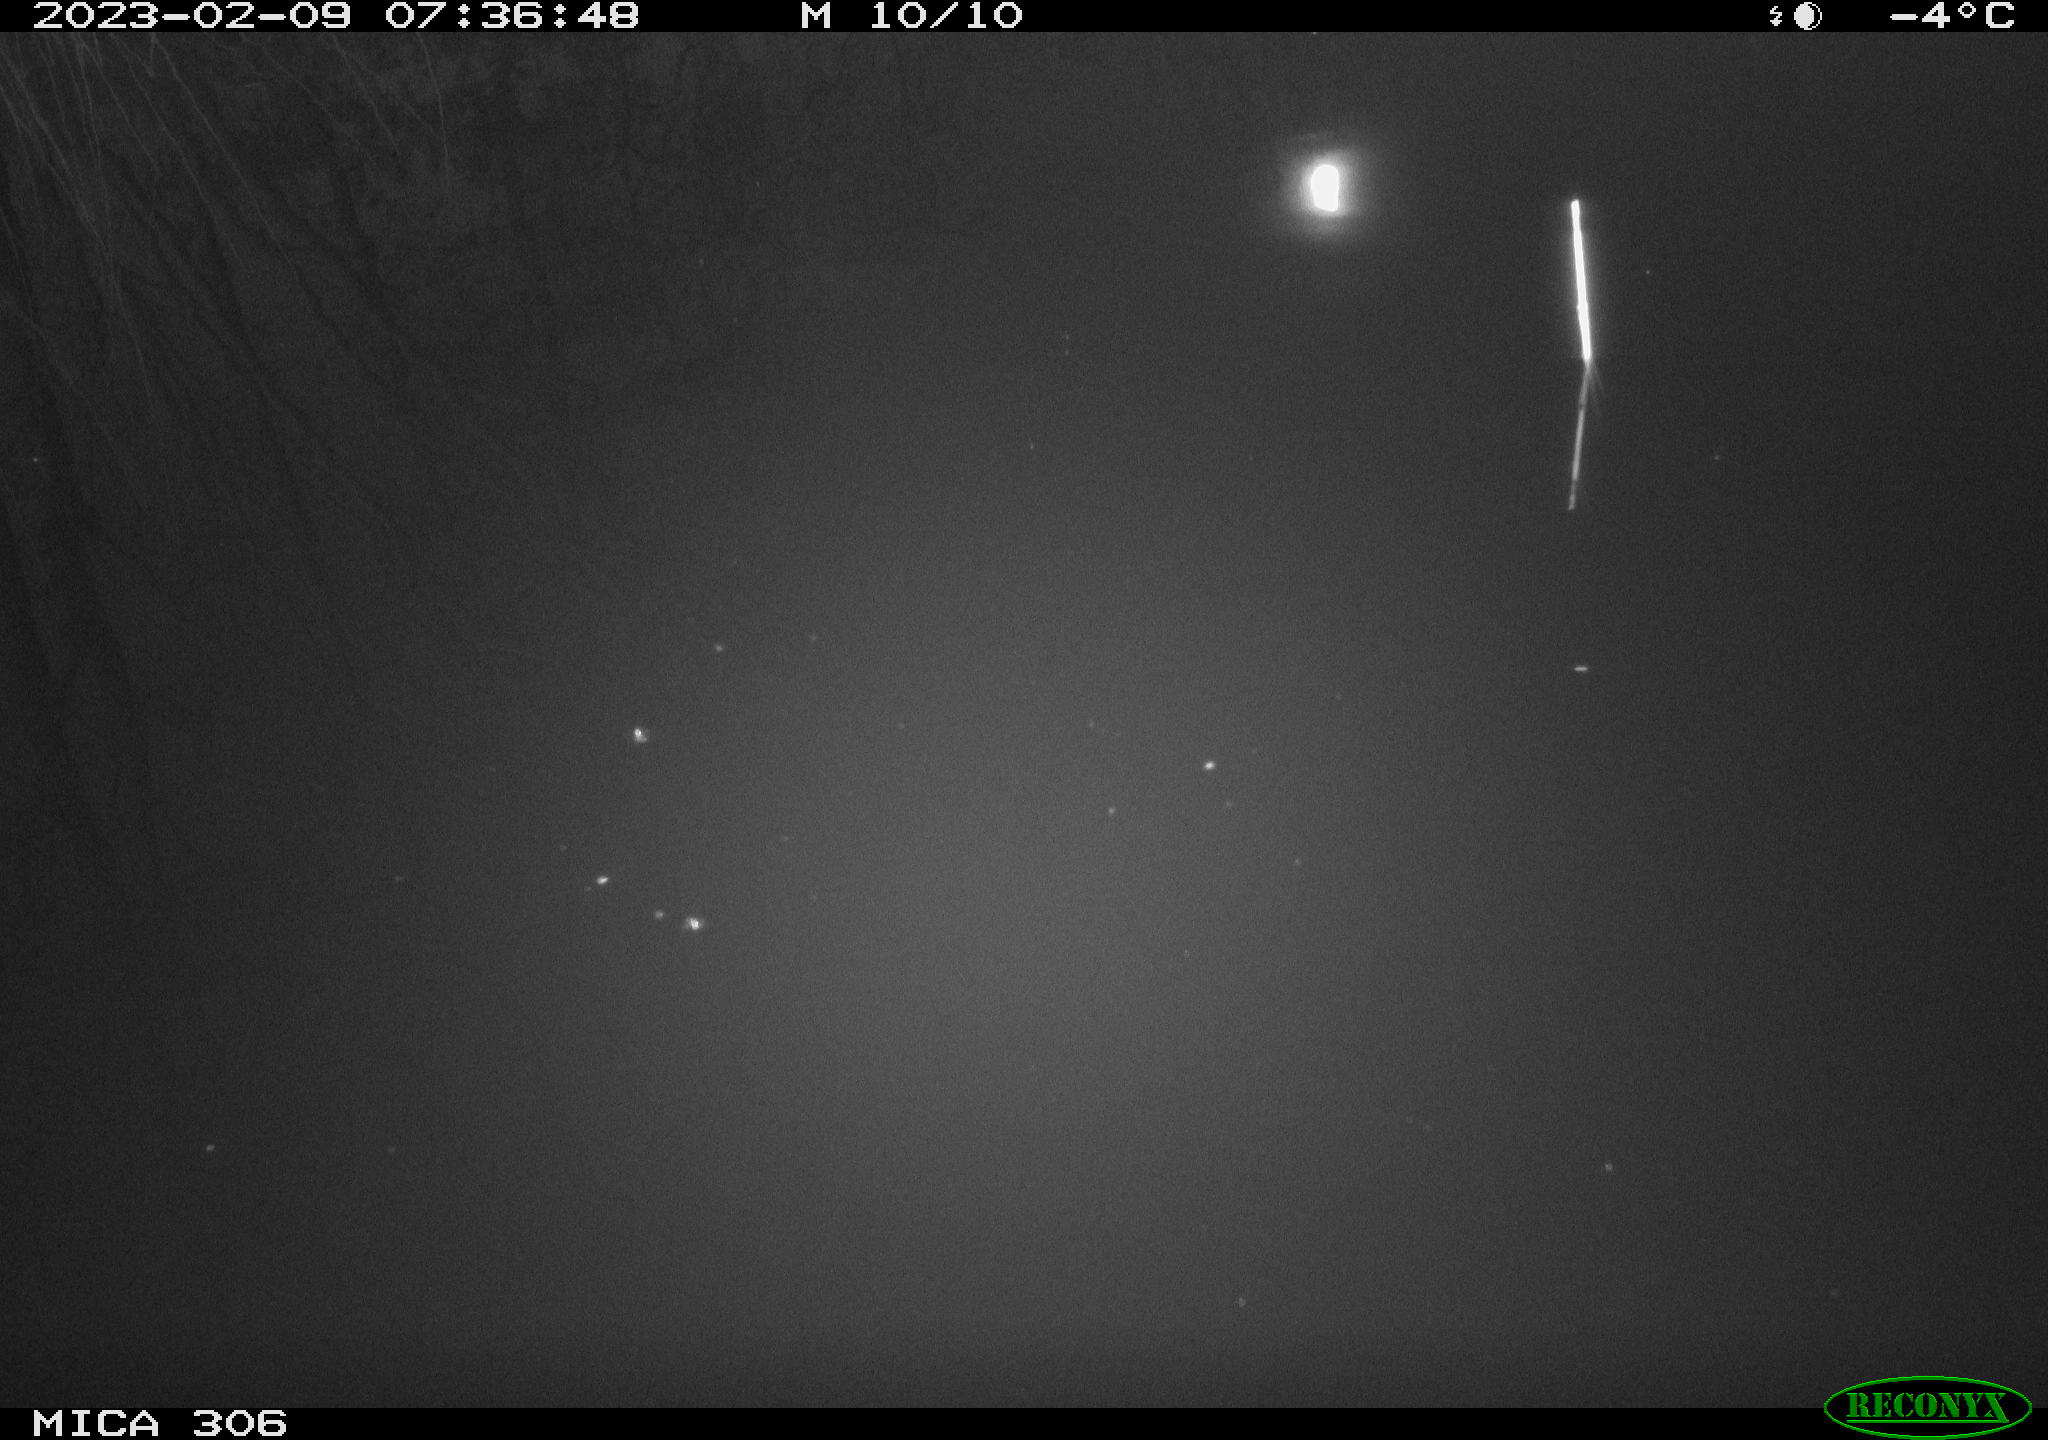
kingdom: Animalia
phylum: Chordata
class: Aves
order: Anseriformes
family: Anatidae
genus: Anas
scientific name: Anas
